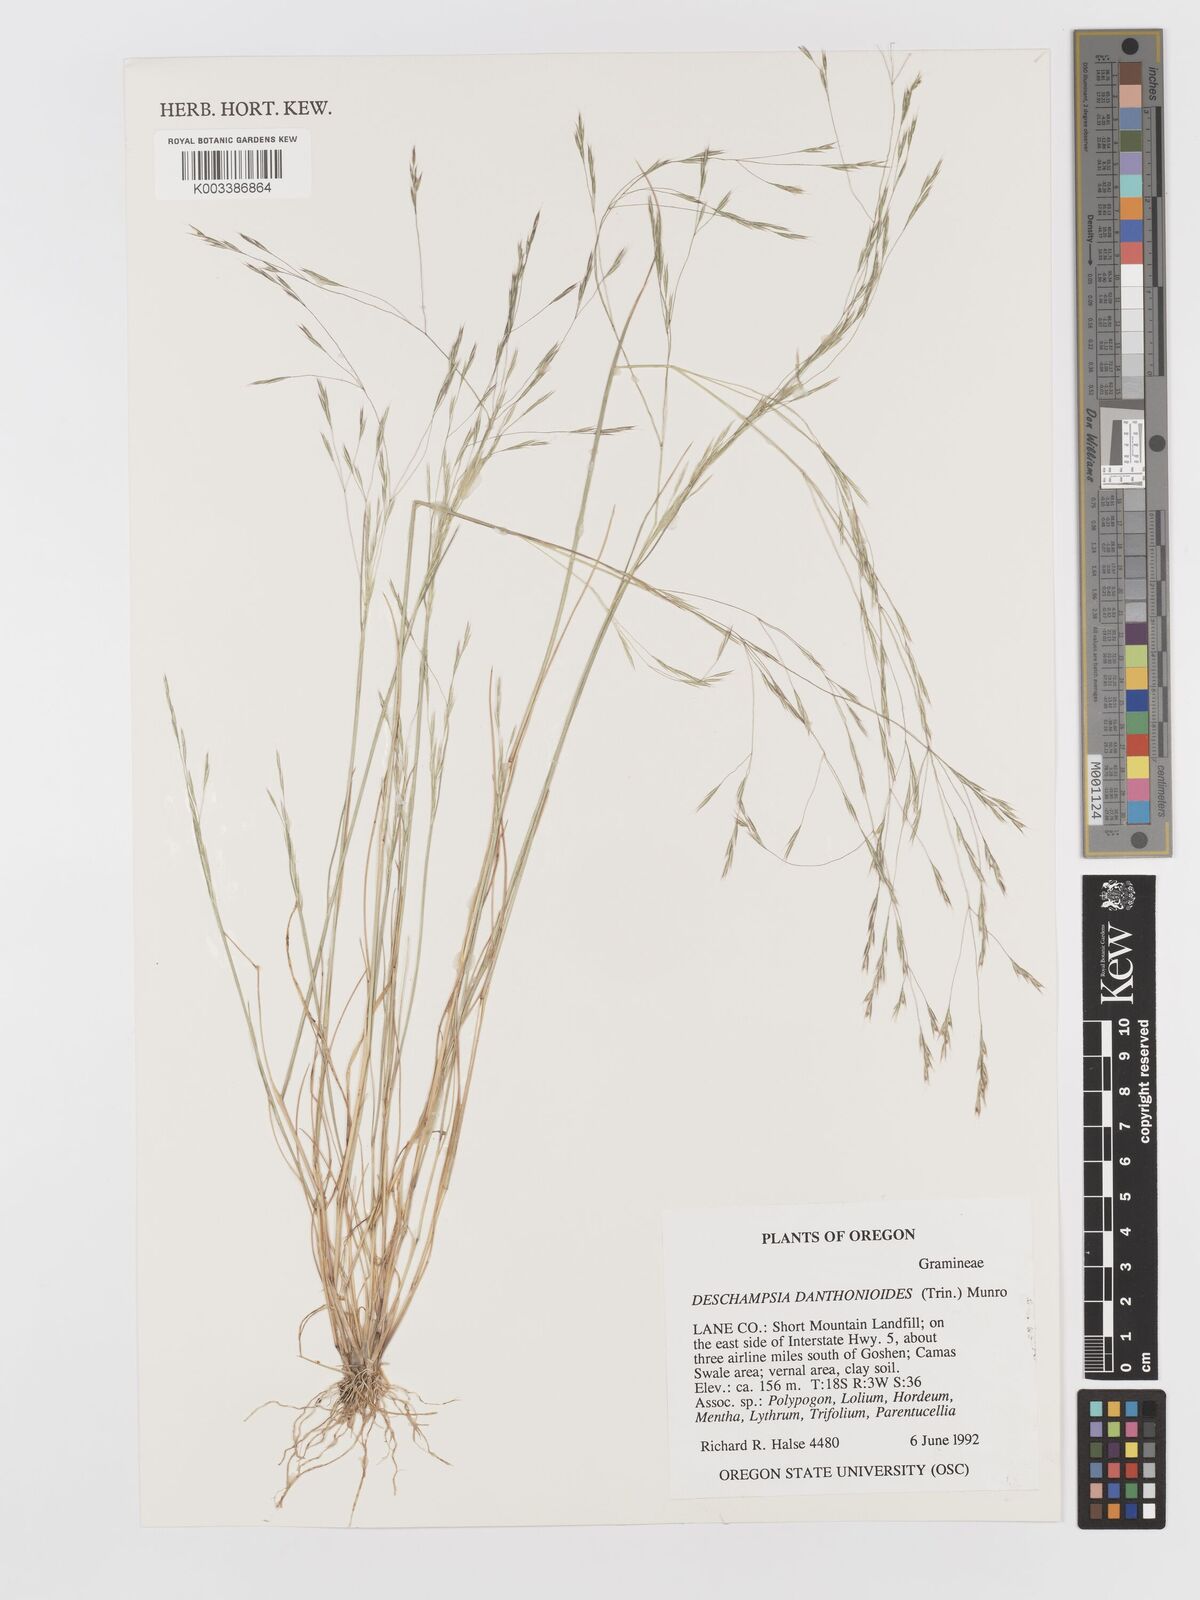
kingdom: Plantae
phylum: Tracheophyta
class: Liliopsida
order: Poales
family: Poaceae
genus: Deschampsia
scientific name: Deschampsia danthonioides
